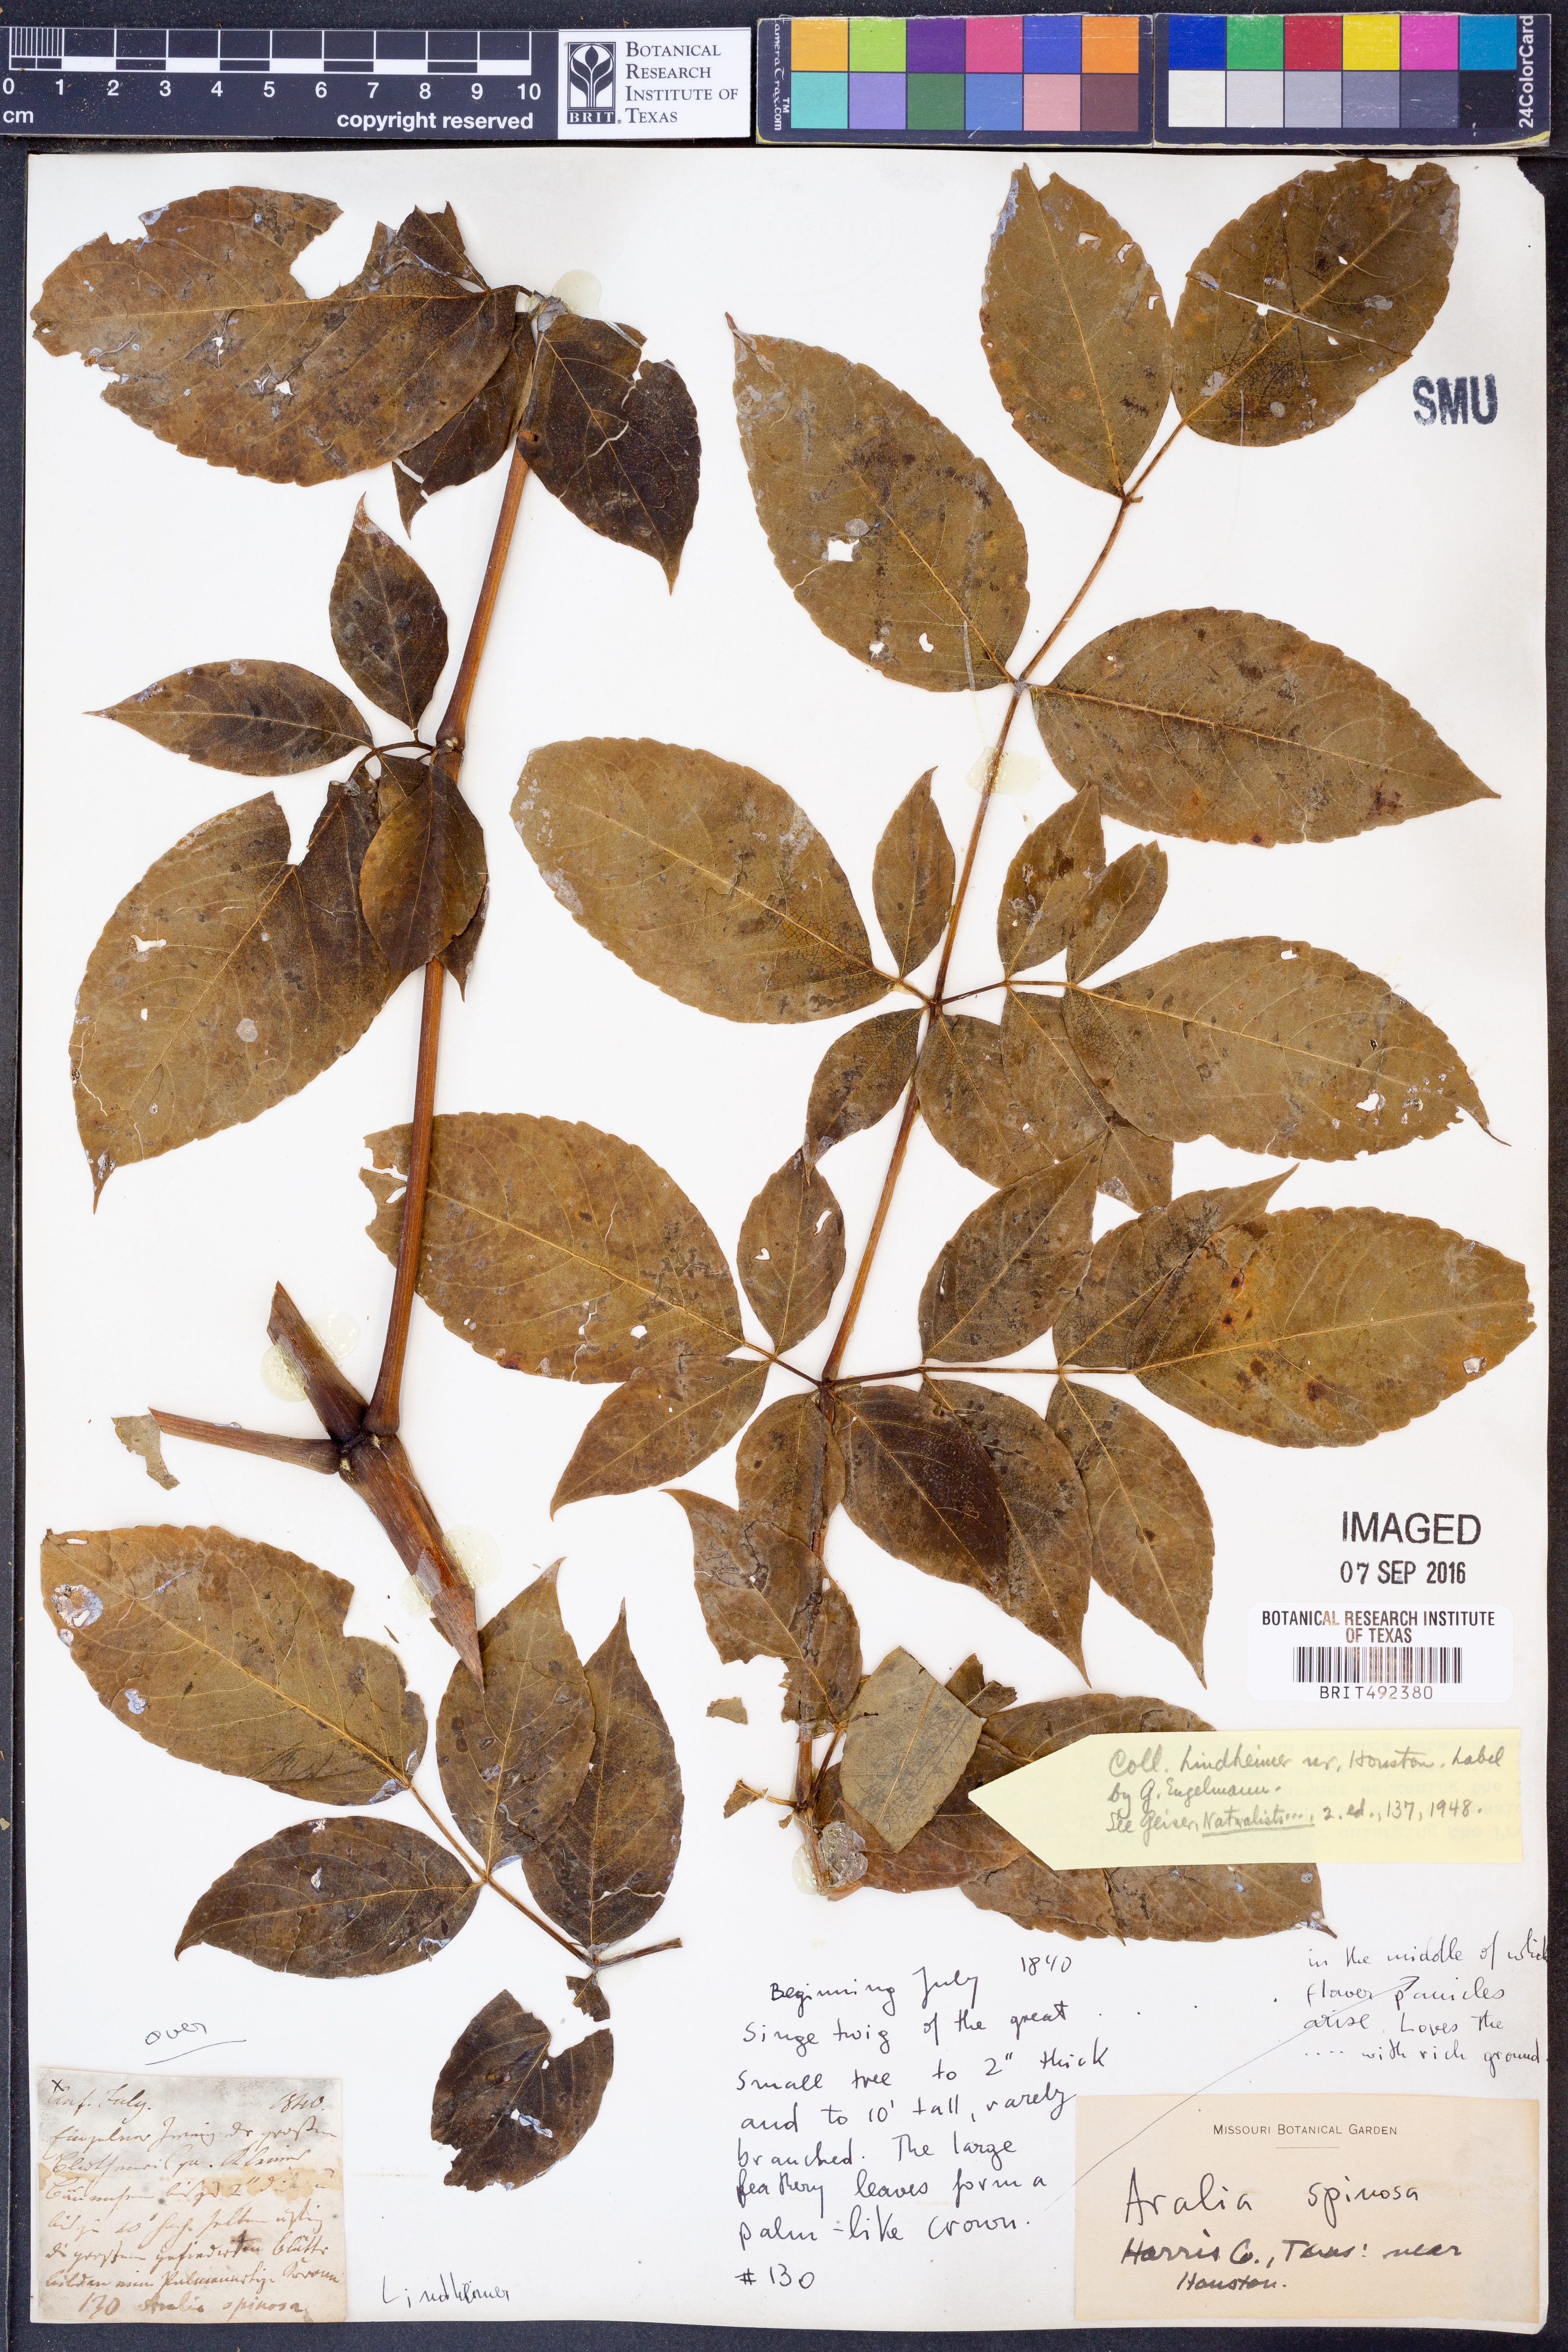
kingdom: Plantae
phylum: Tracheophyta
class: Magnoliopsida
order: Apiales
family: Araliaceae
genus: Aralia
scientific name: Aralia spinosa
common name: Hercules'-club
